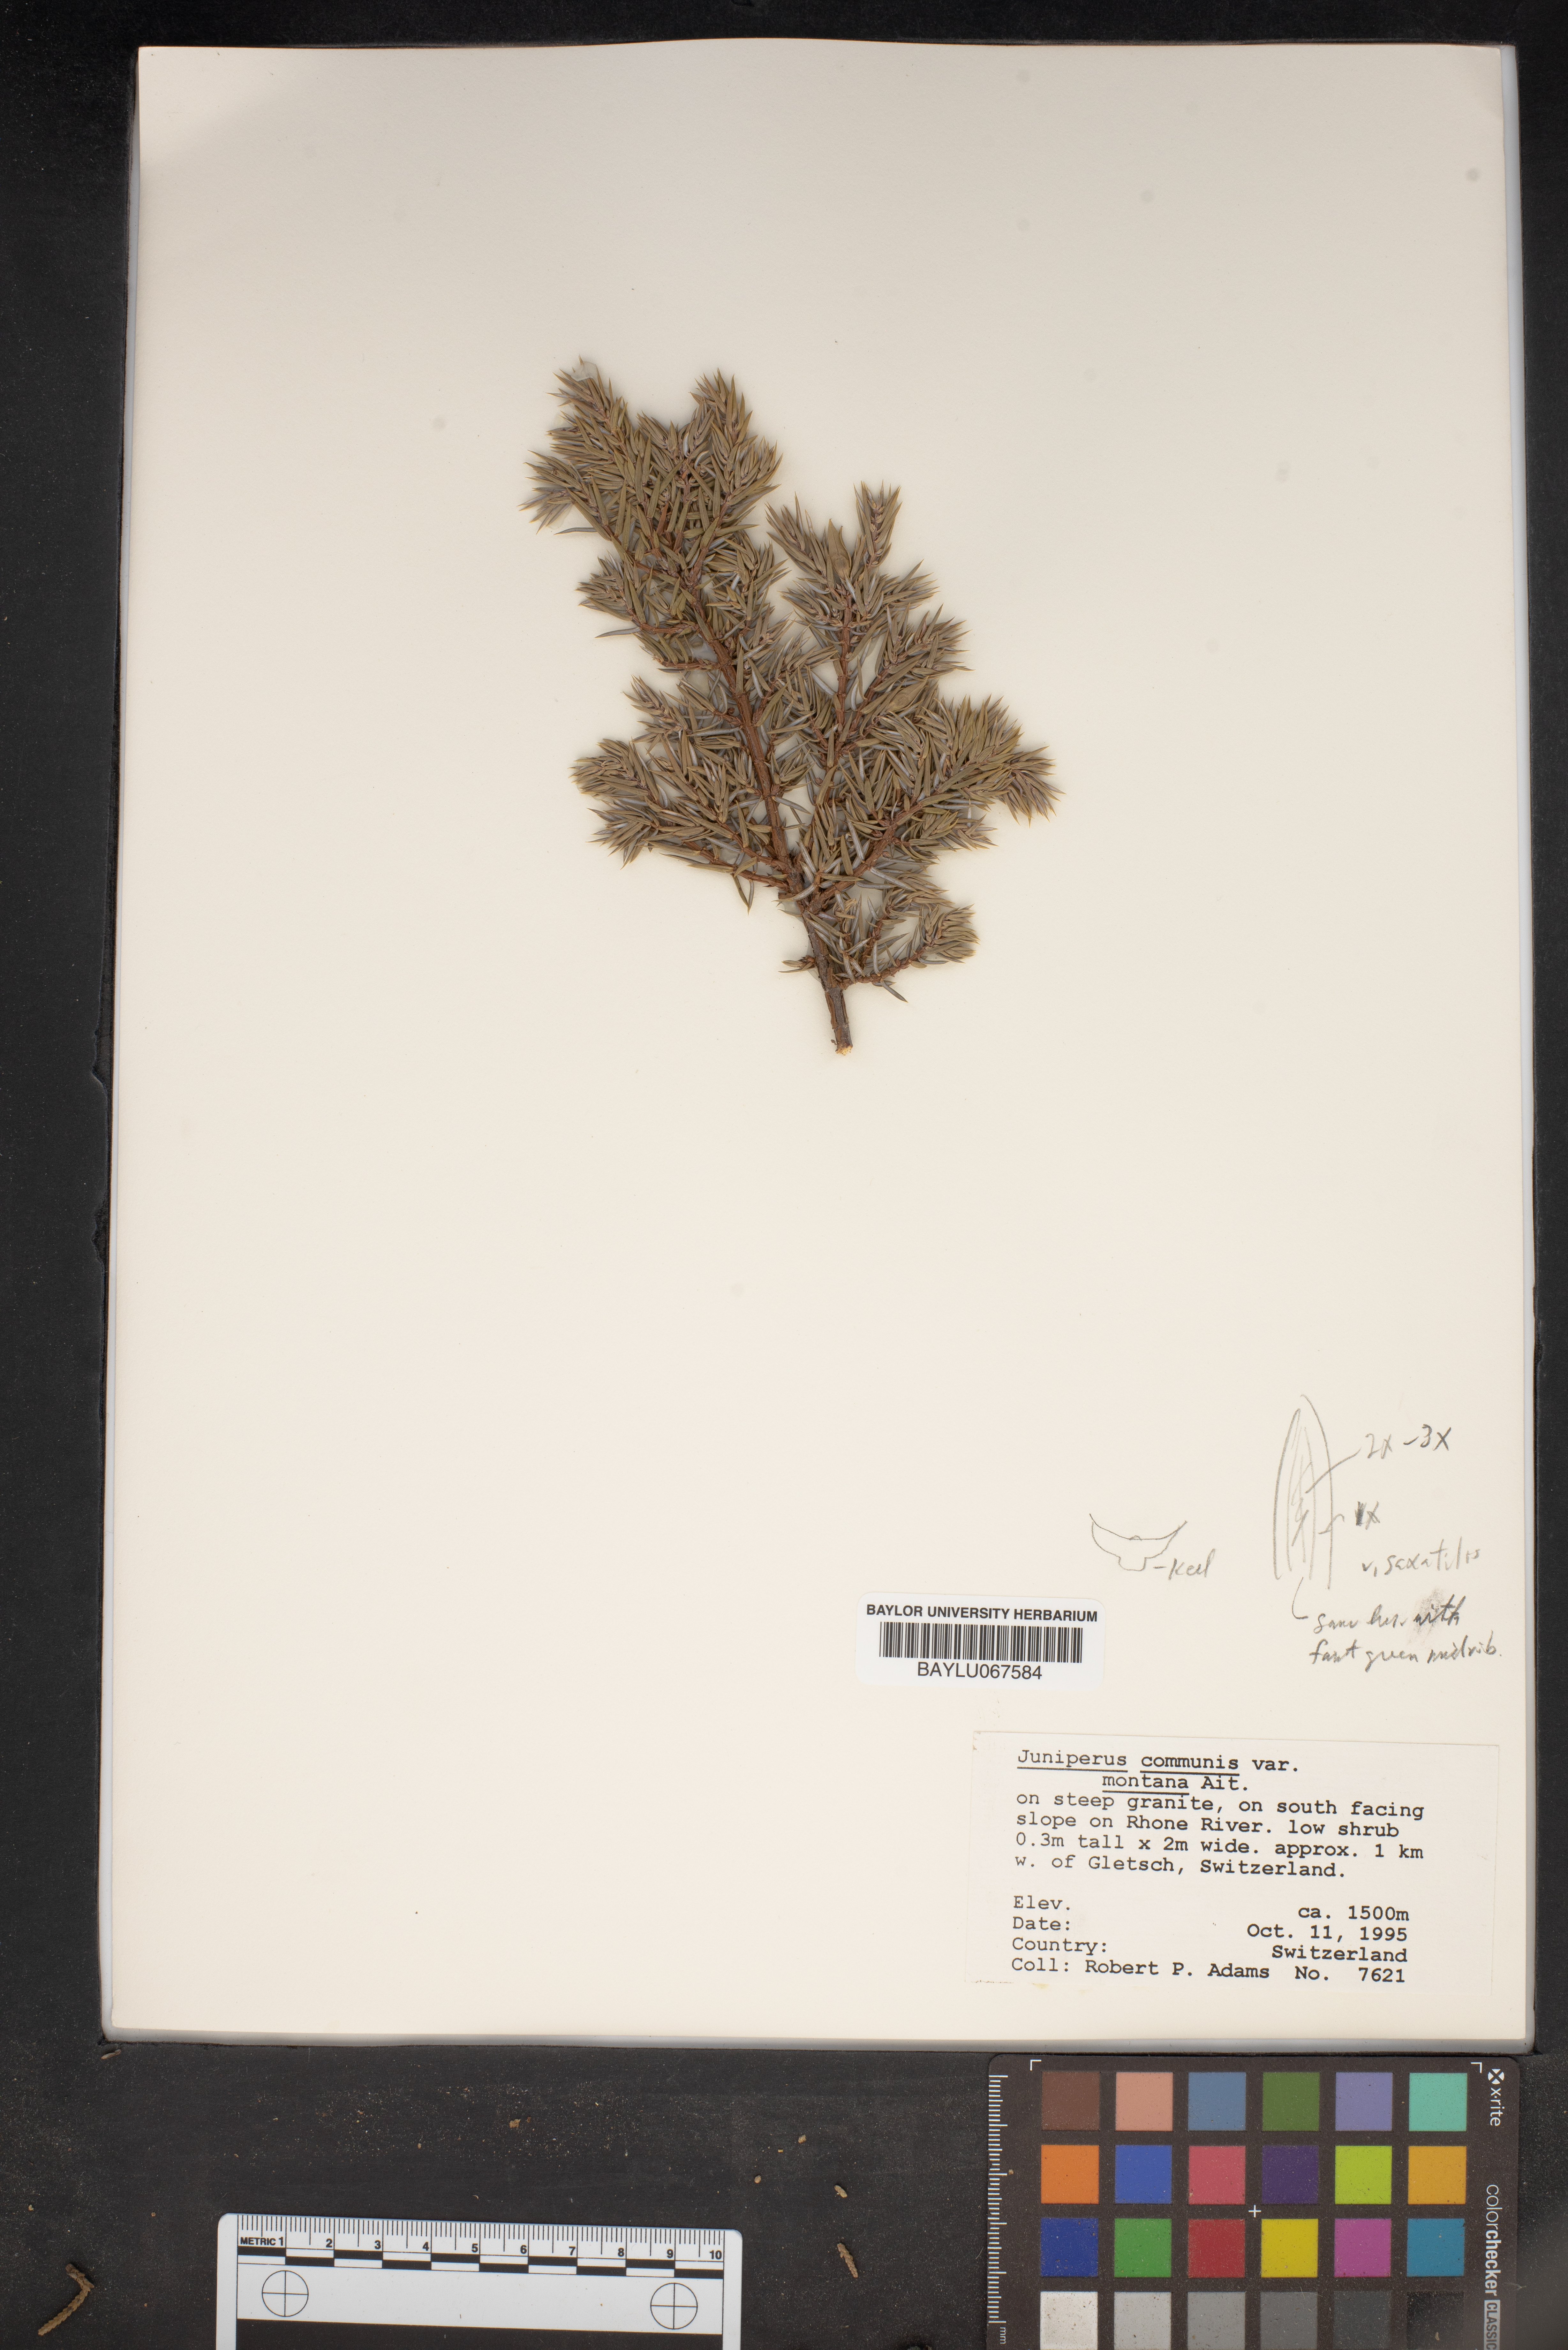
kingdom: Plantae
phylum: Tracheophyta
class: Pinopsida
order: Pinales
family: Cupressaceae
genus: Juniperus
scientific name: Juniperus communis
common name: Common juniper
